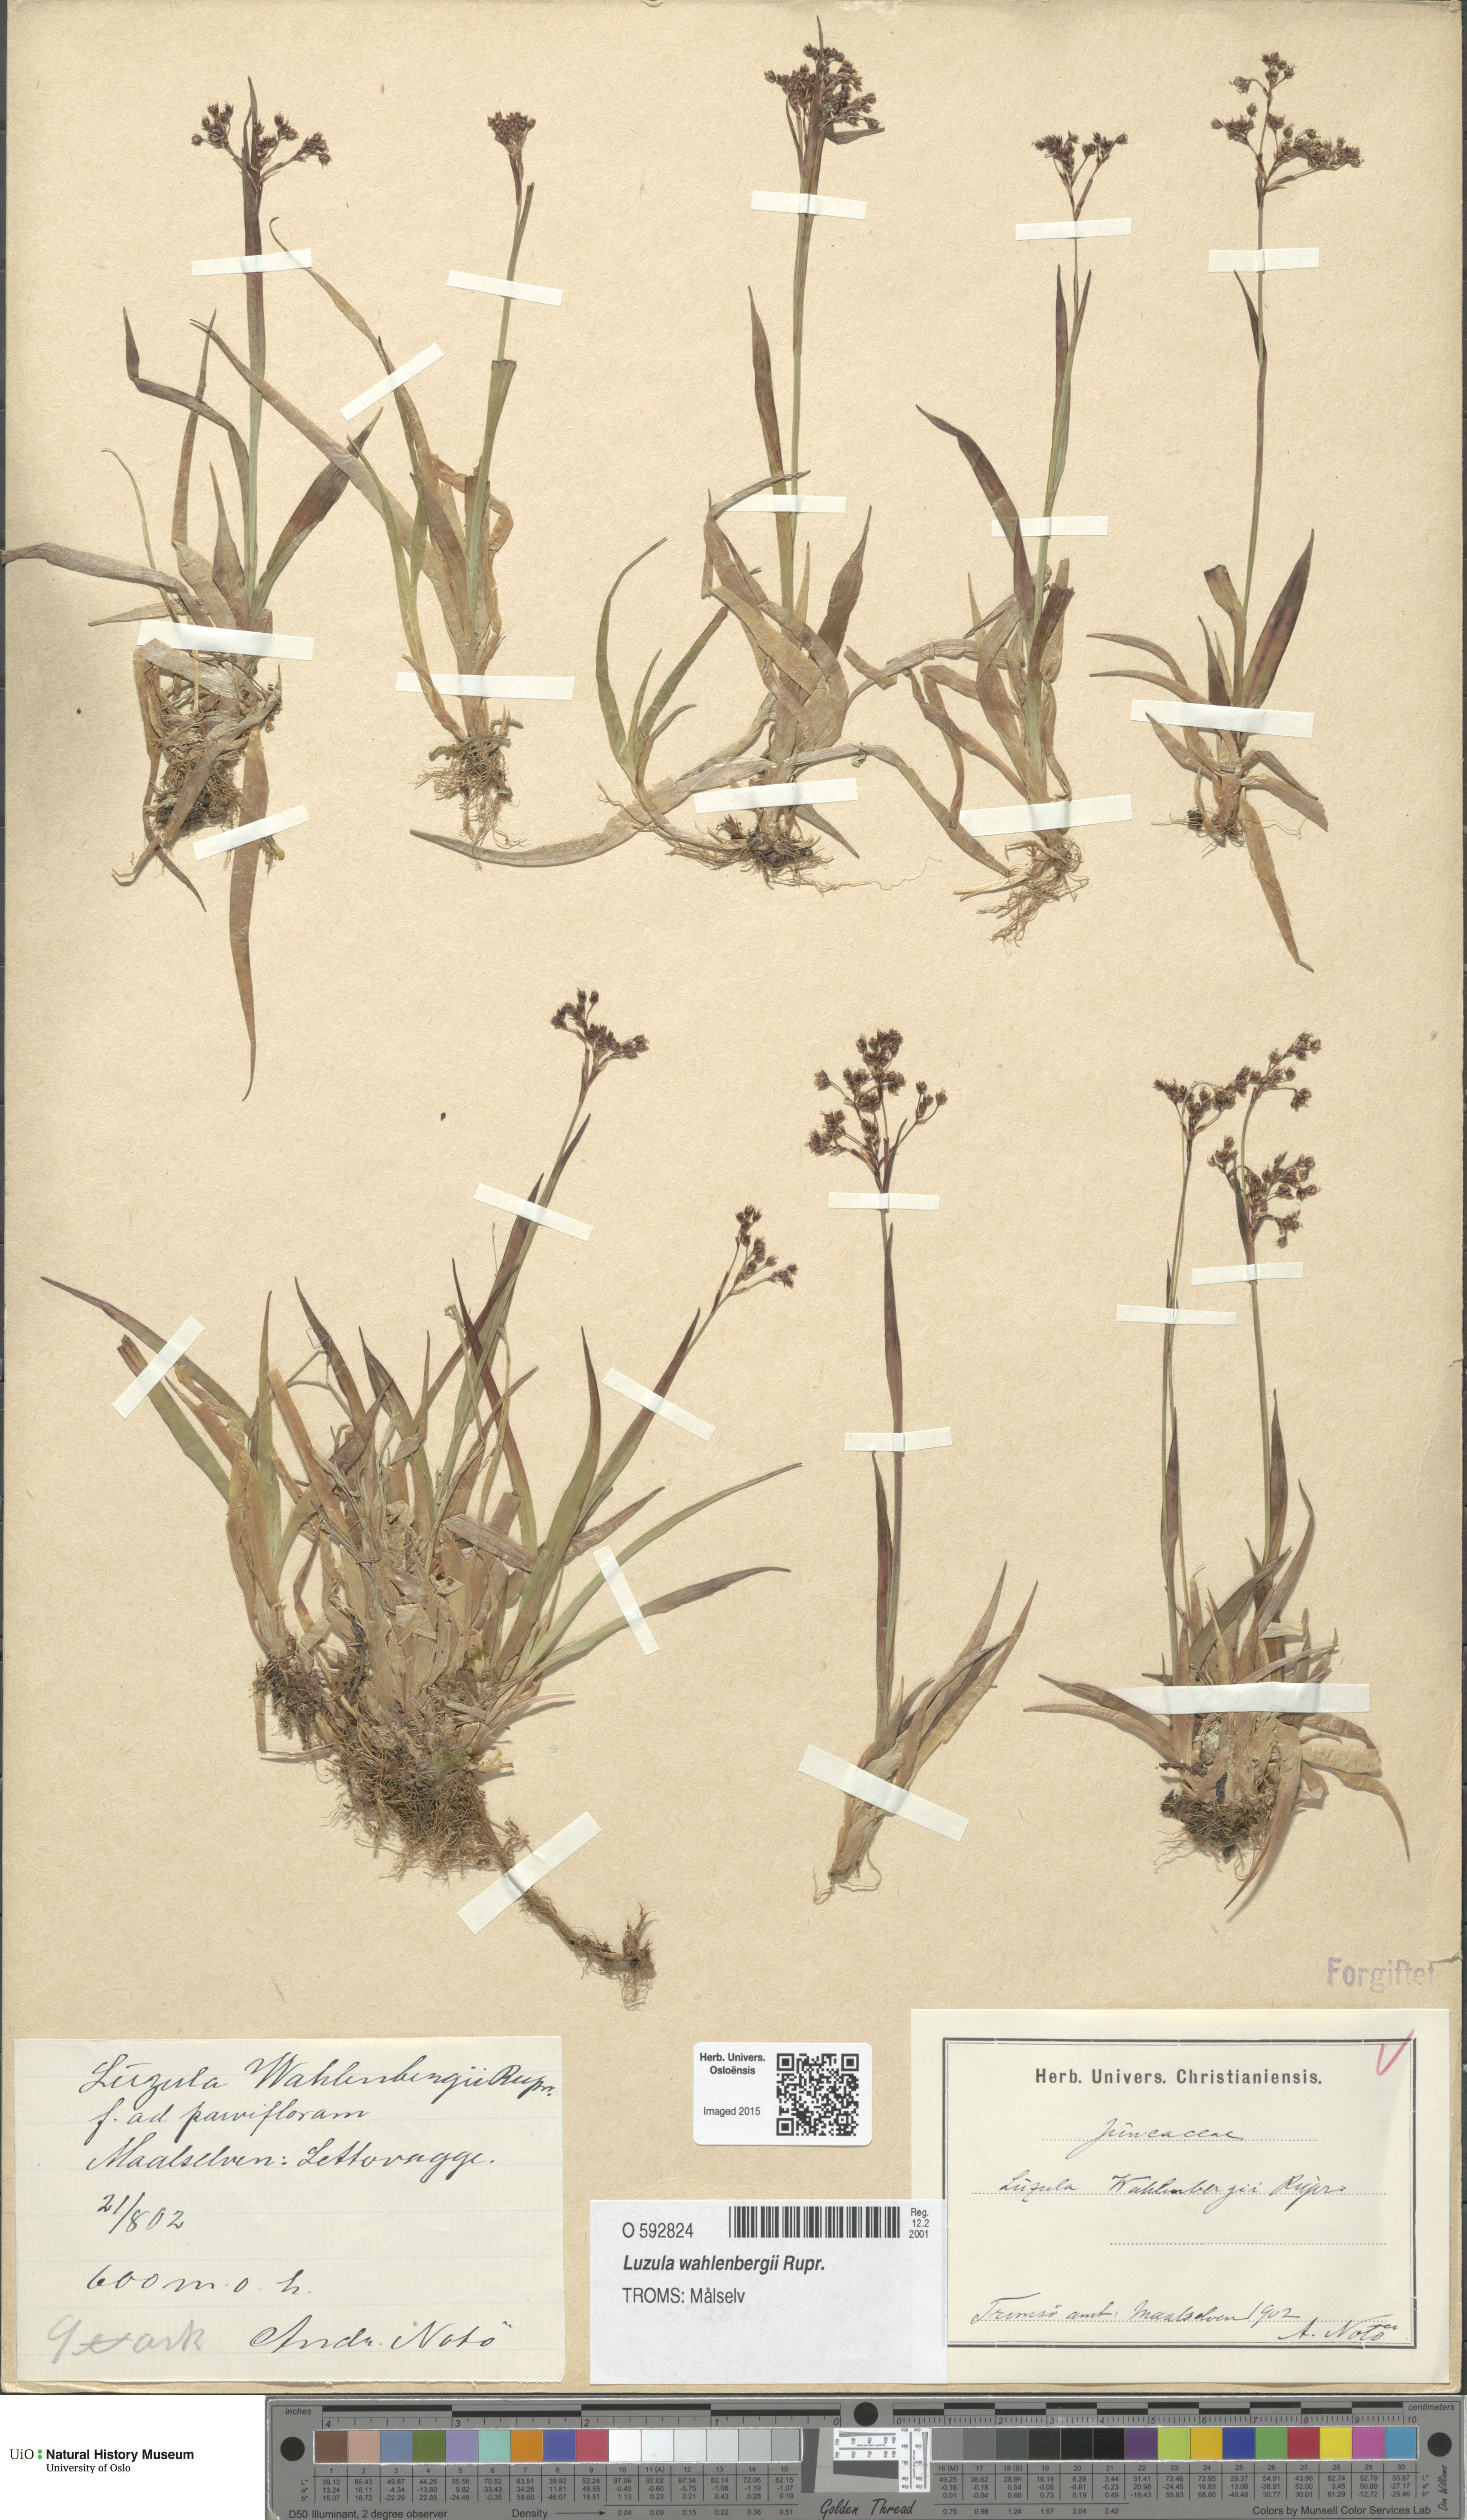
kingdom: Plantae
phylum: Tracheophyta
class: Liliopsida
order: Poales
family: Juncaceae
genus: Luzula
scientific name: Luzula wahlenbergii
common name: Wahlenberg's wood-rush
